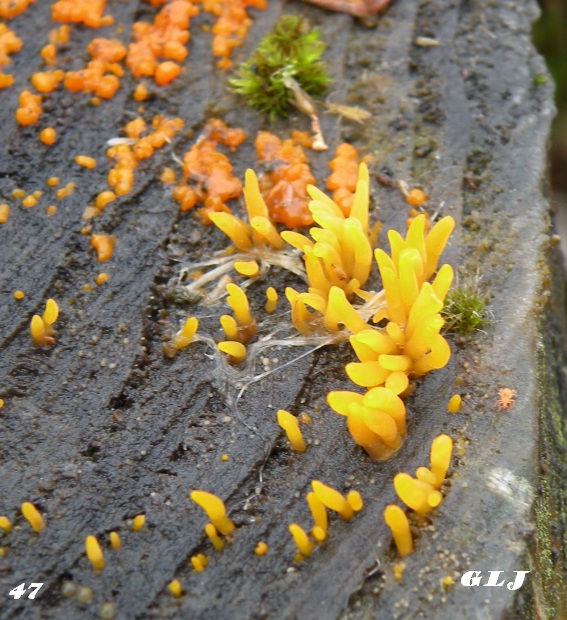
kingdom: Fungi
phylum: Basidiomycota
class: Dacrymycetes
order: Dacrymycetales
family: Dacrymycetaceae
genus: Calocera
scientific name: Calocera cornea
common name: liden guldgaffel
